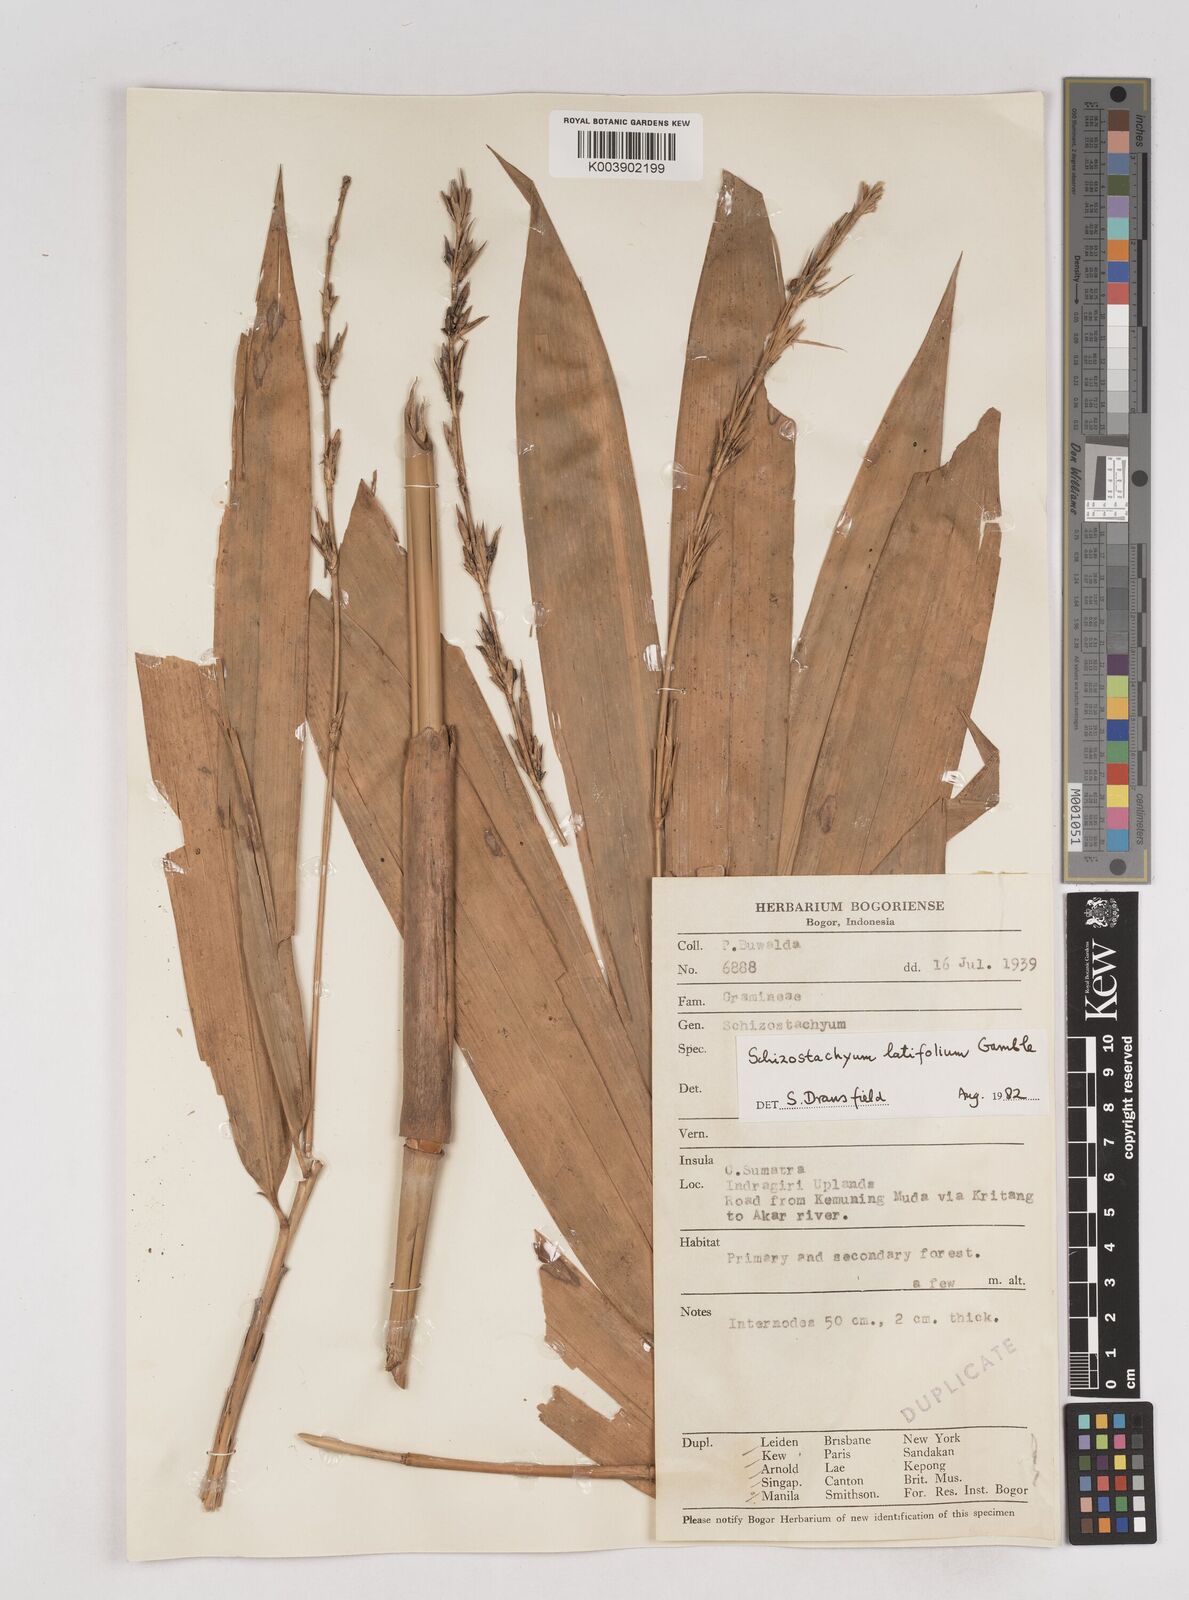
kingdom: Plantae
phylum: Tracheophyta
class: Liliopsida
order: Poales
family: Poaceae
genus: Schizostachyum
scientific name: Schizostachyum latifolium
